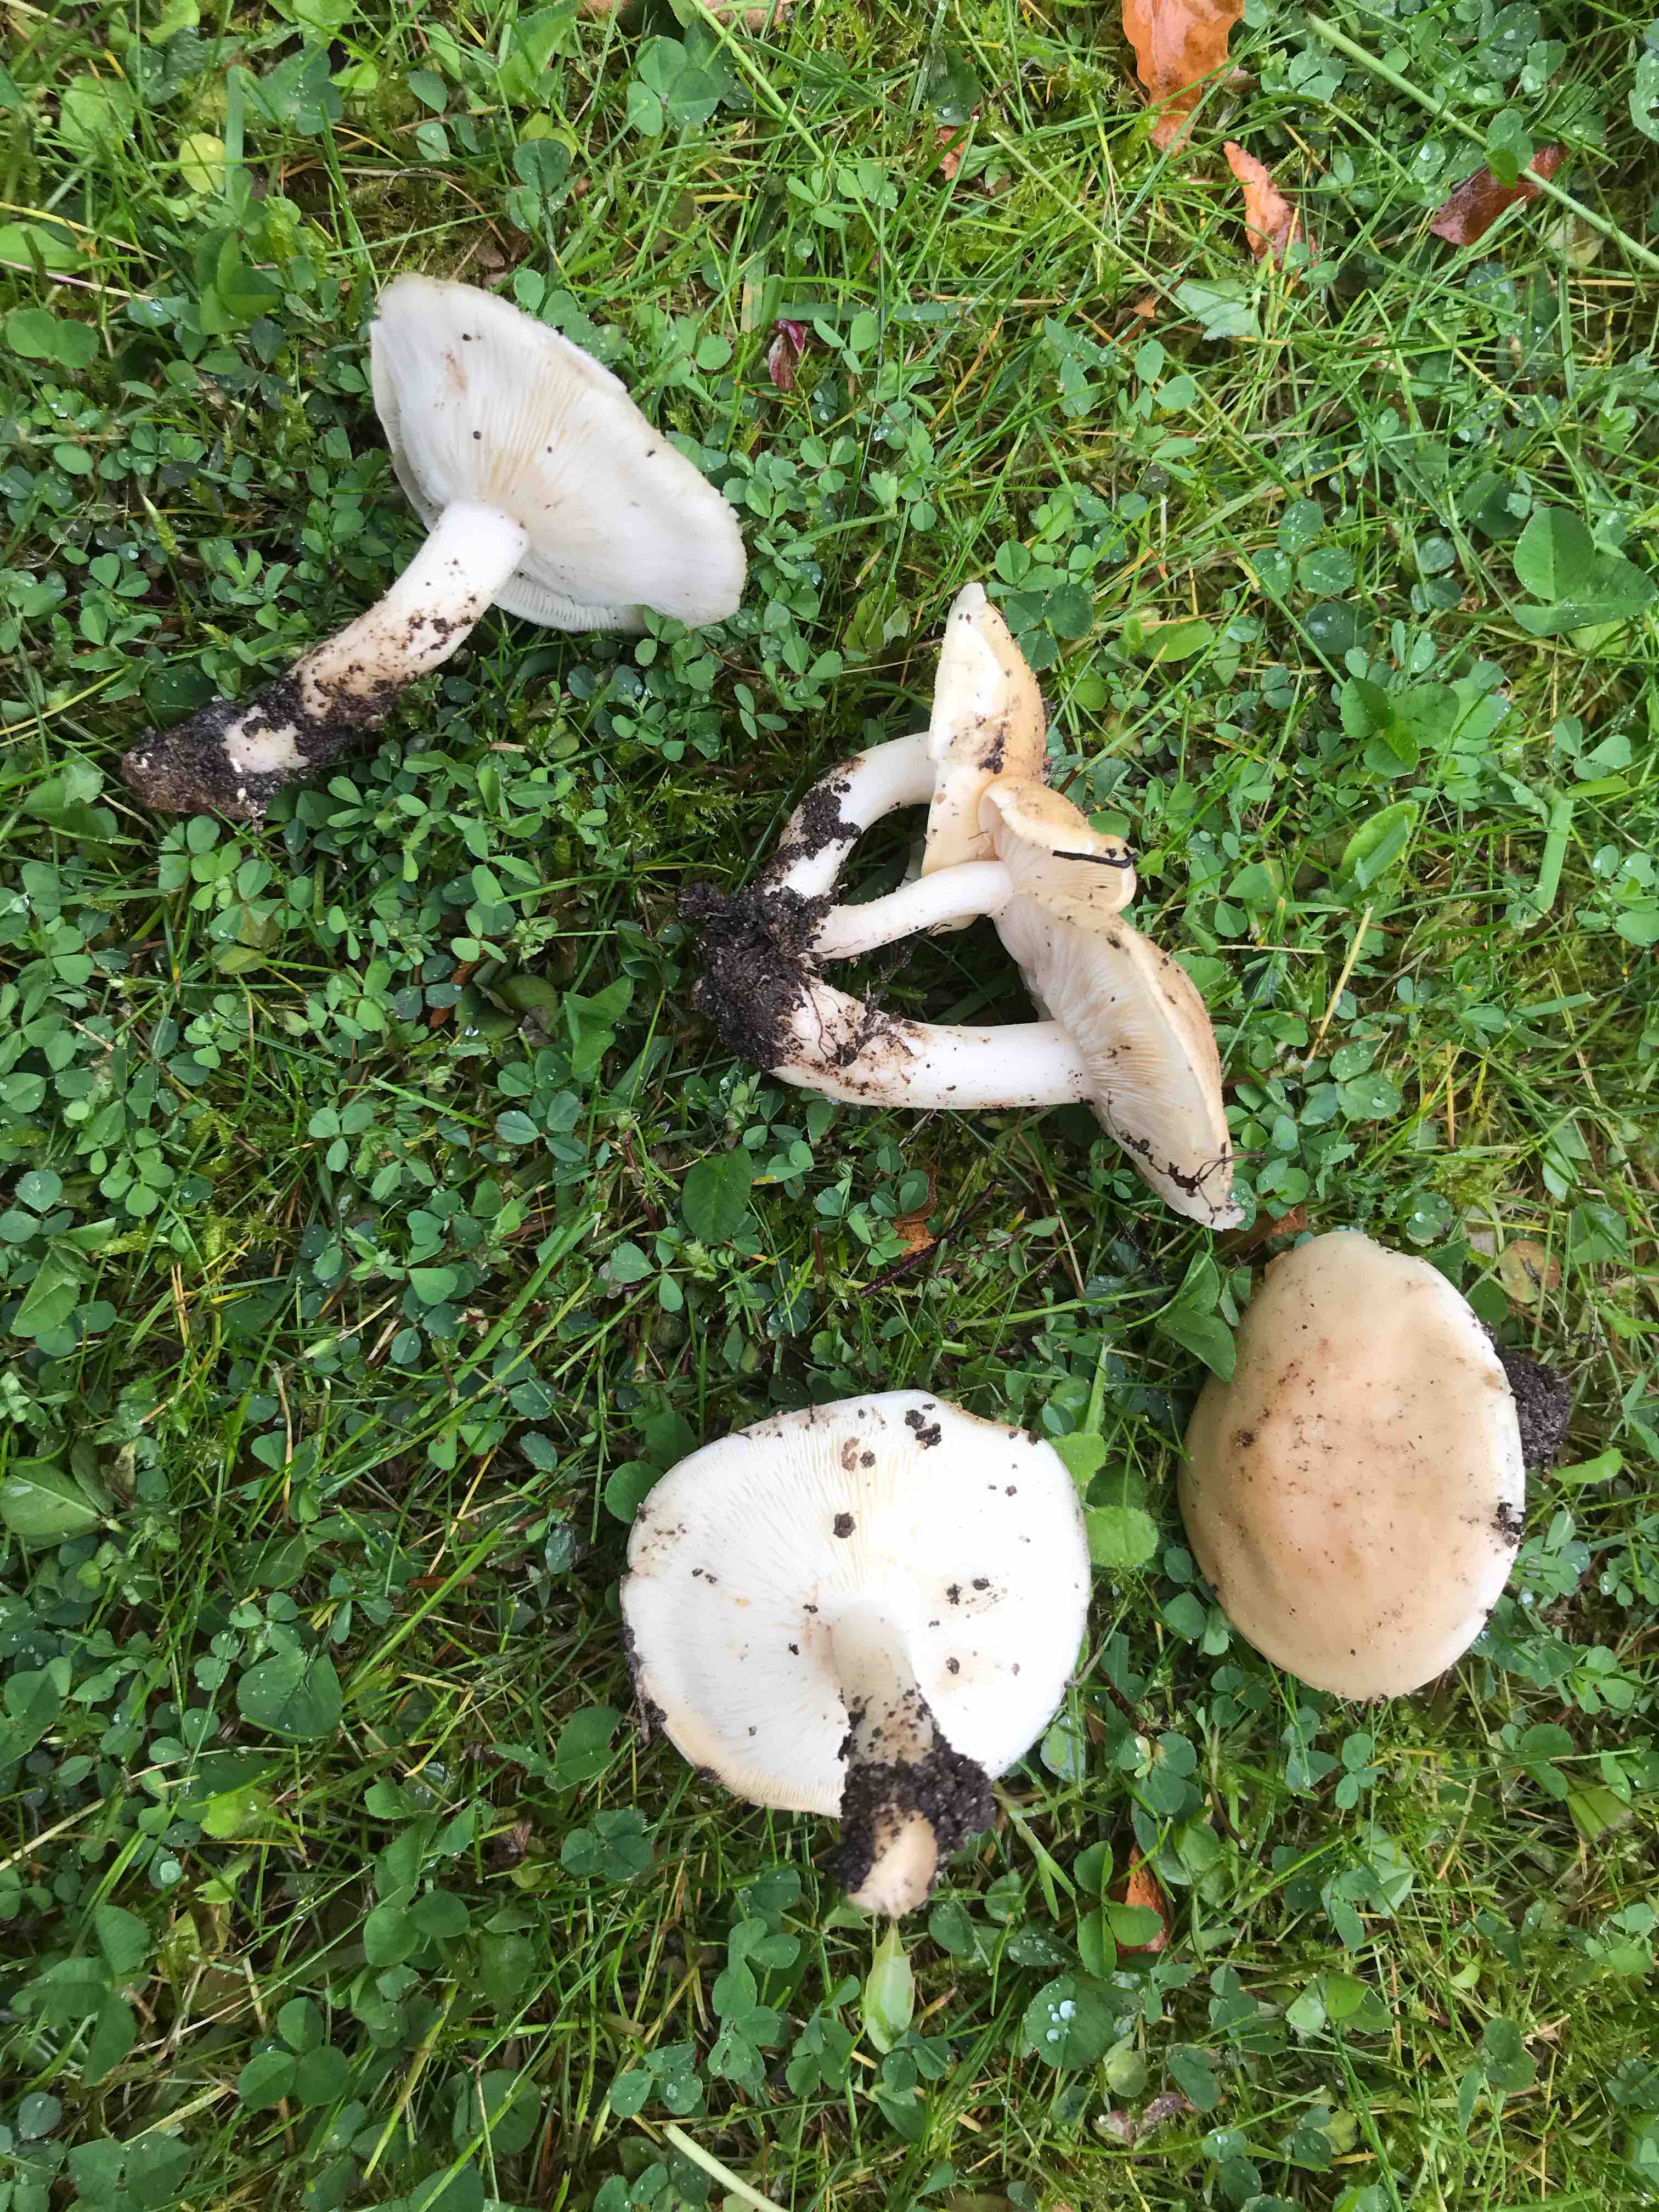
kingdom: Fungi
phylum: Basidiomycota
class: Agaricomycetes
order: Agaricales
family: Lyophyllaceae
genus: Calocybe
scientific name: Calocybe gambosa
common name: vårmusseron
